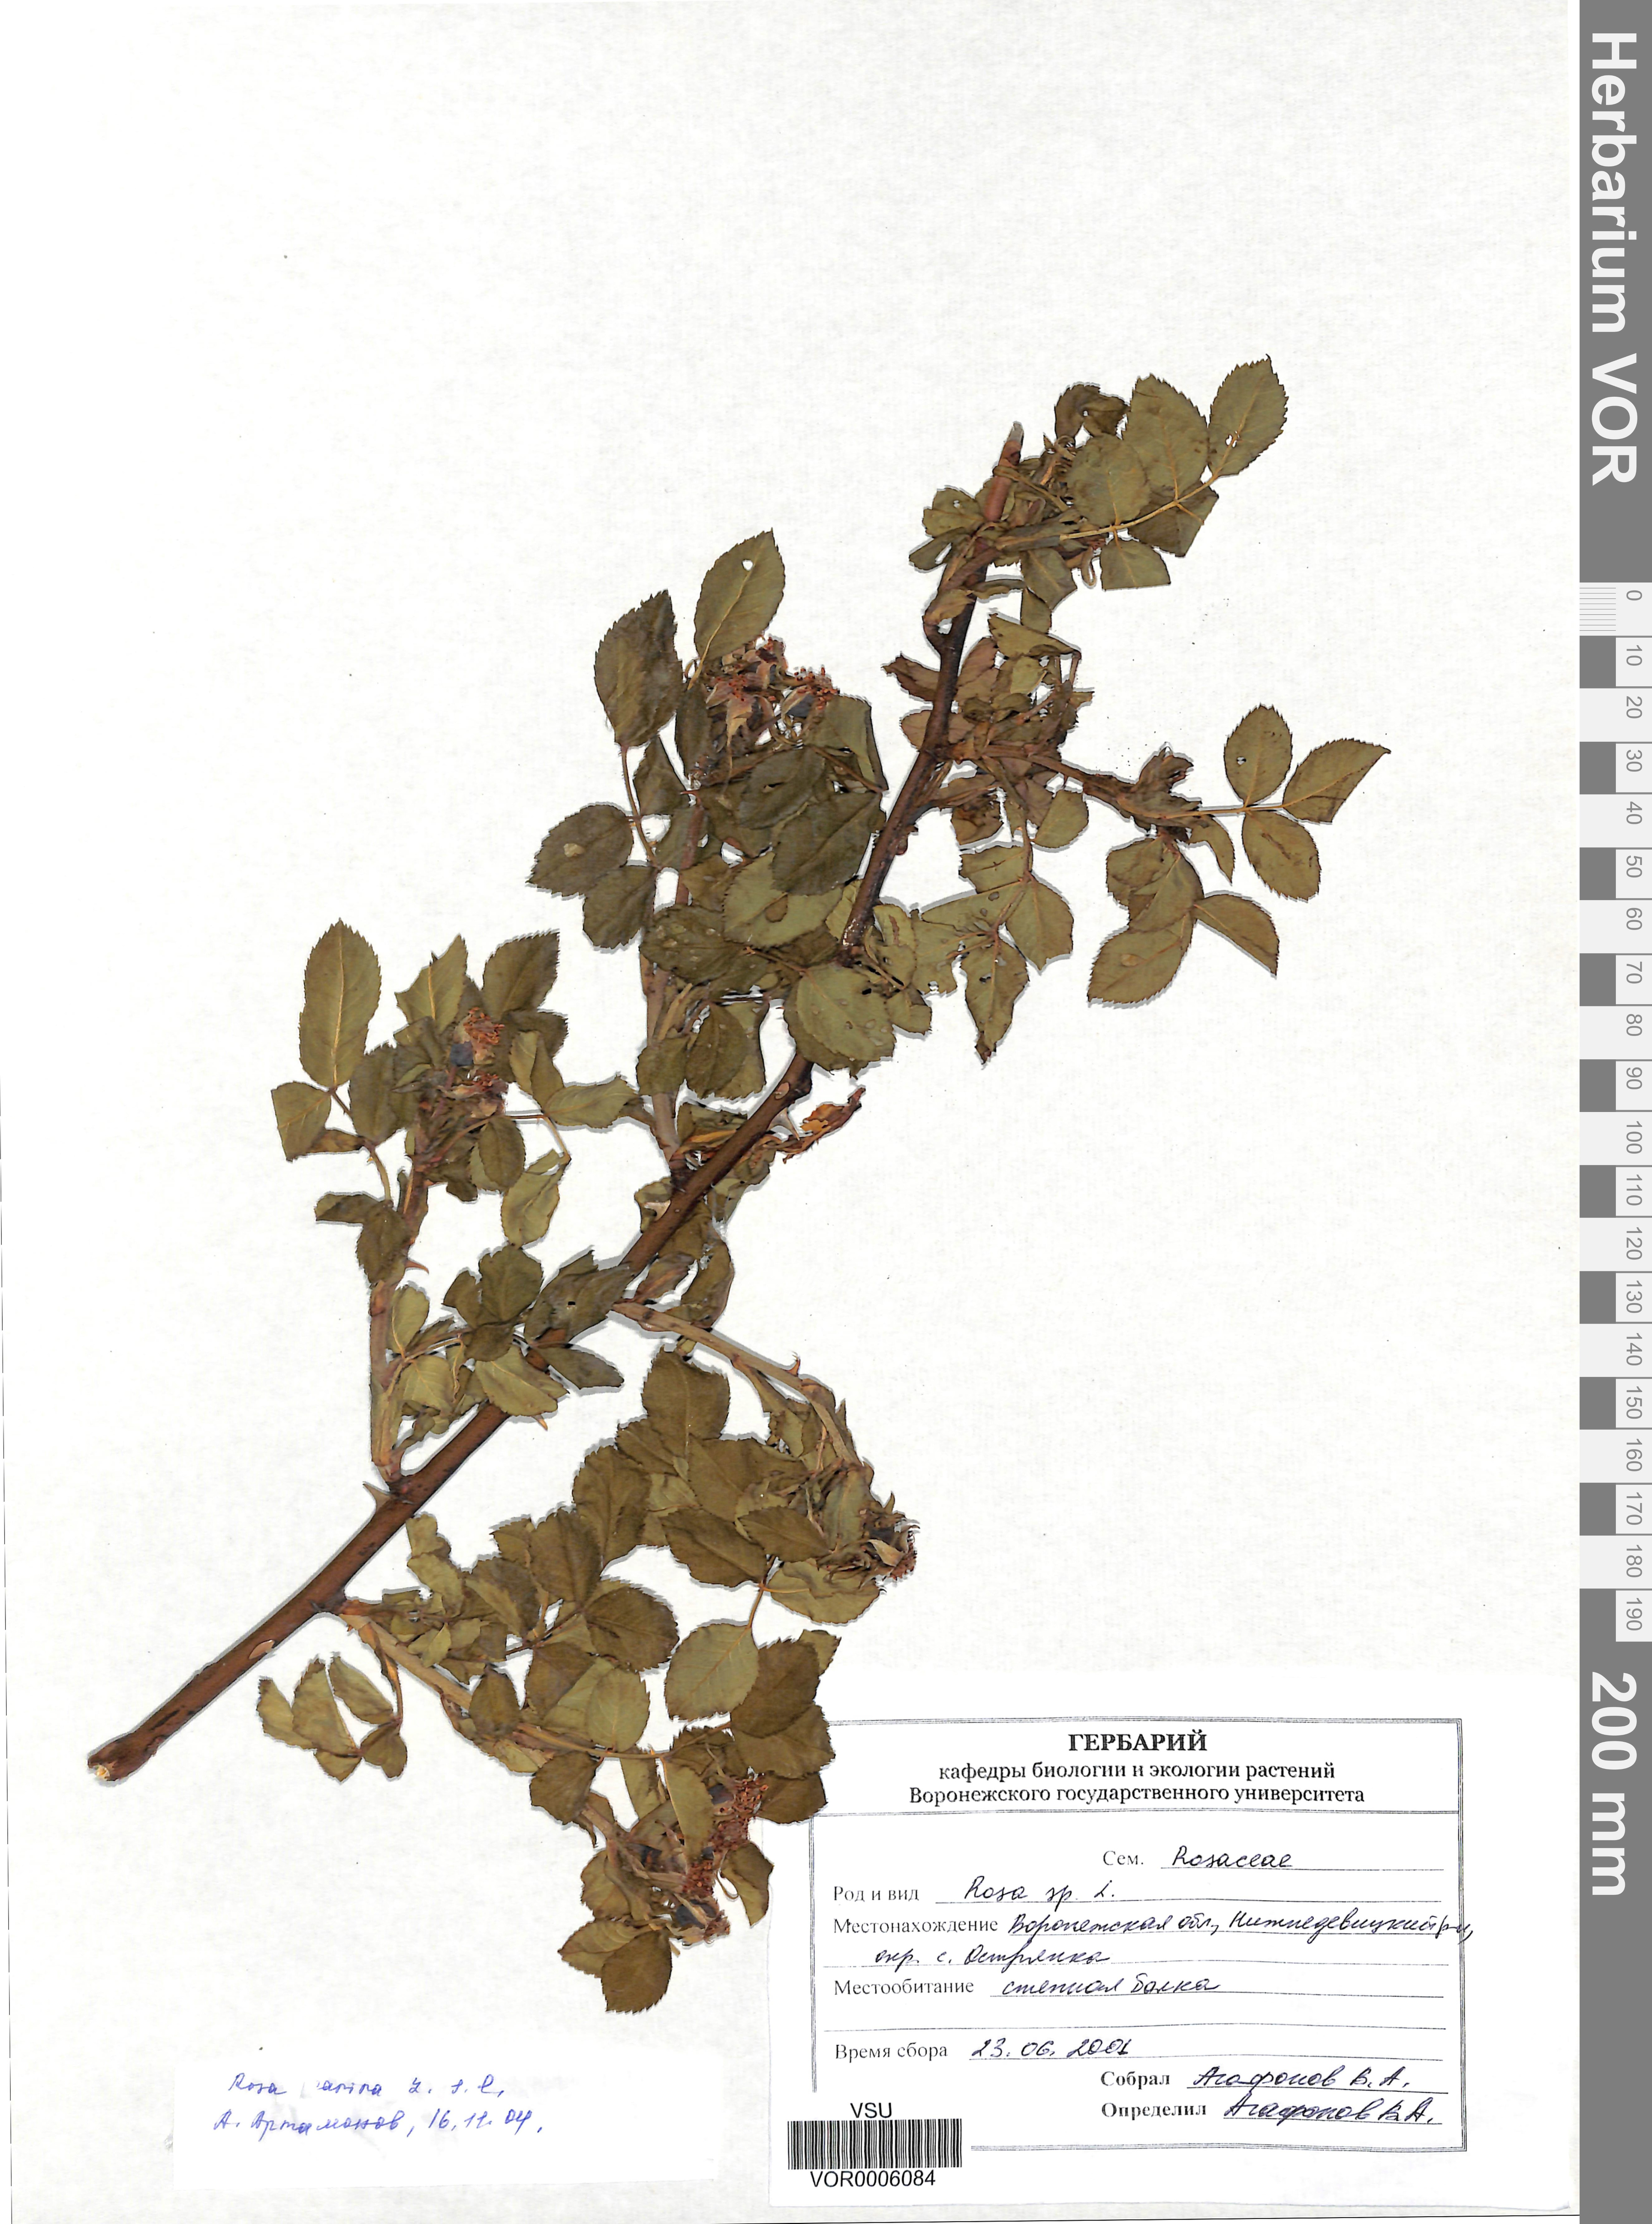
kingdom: Plantae
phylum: Tracheophyta
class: Magnoliopsida
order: Rosales
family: Rosaceae
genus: Rosa
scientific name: Rosa canina
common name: Dog rose
